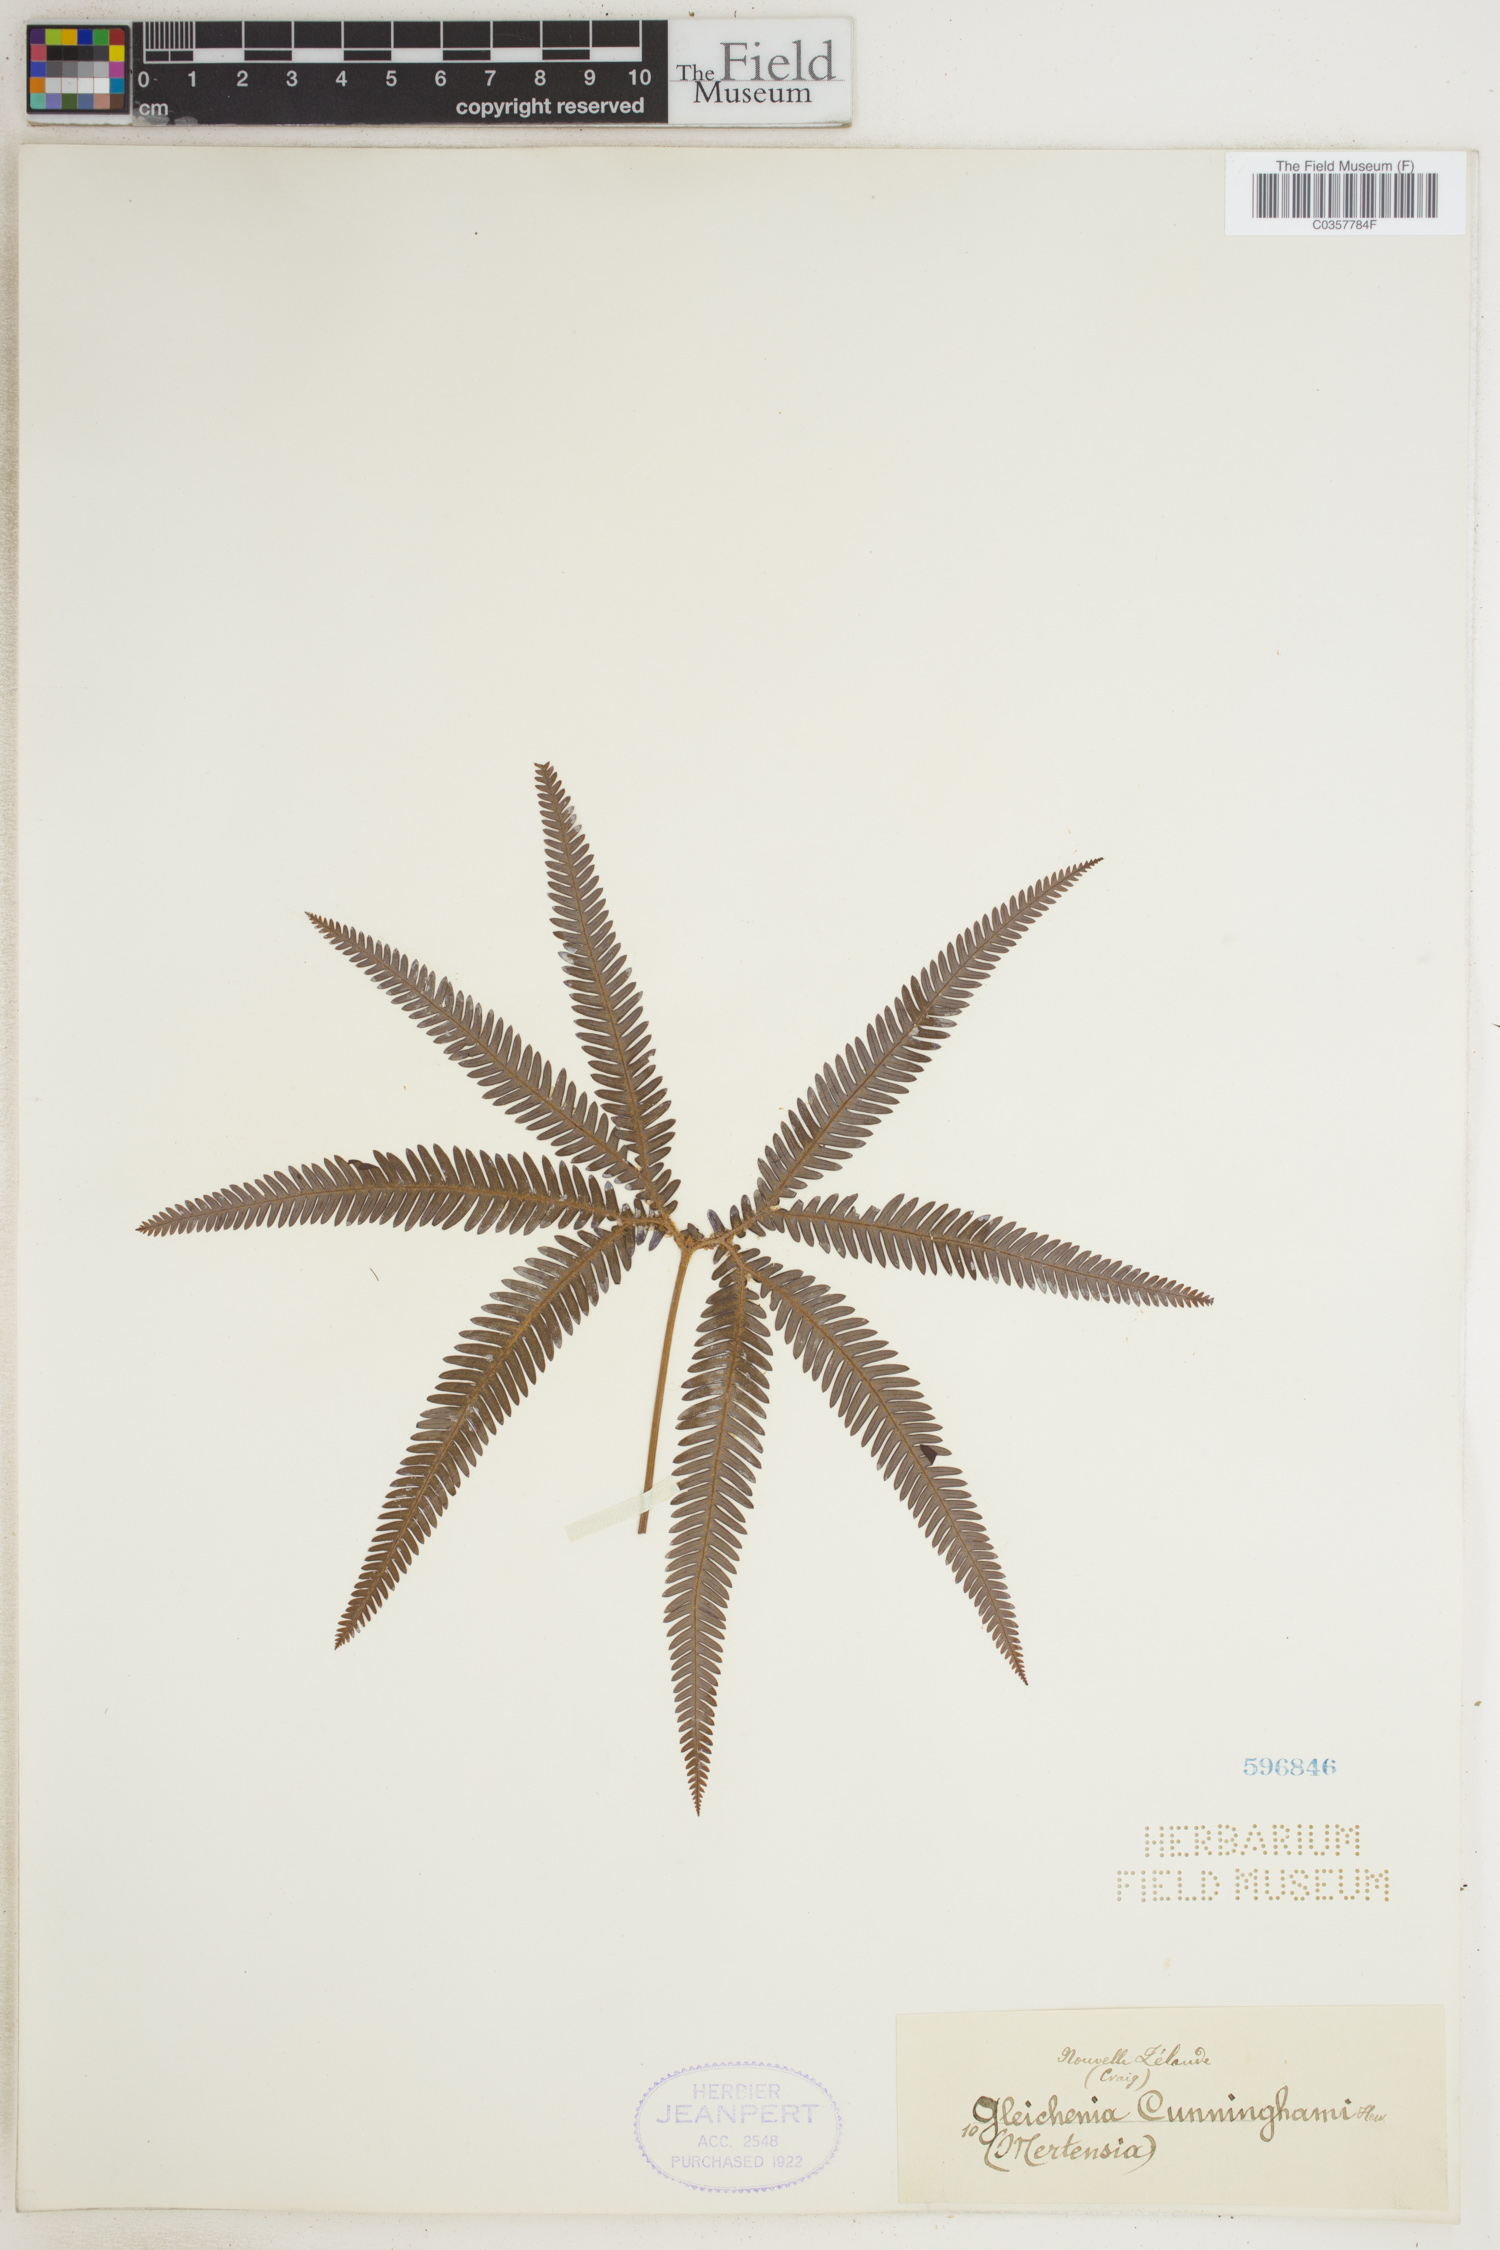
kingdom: Plantae
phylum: Tracheophyta
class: Polypodiopsida
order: Gleicheniales
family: Gleicheniaceae
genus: Sticherus
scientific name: Sticherus cunninghamii
